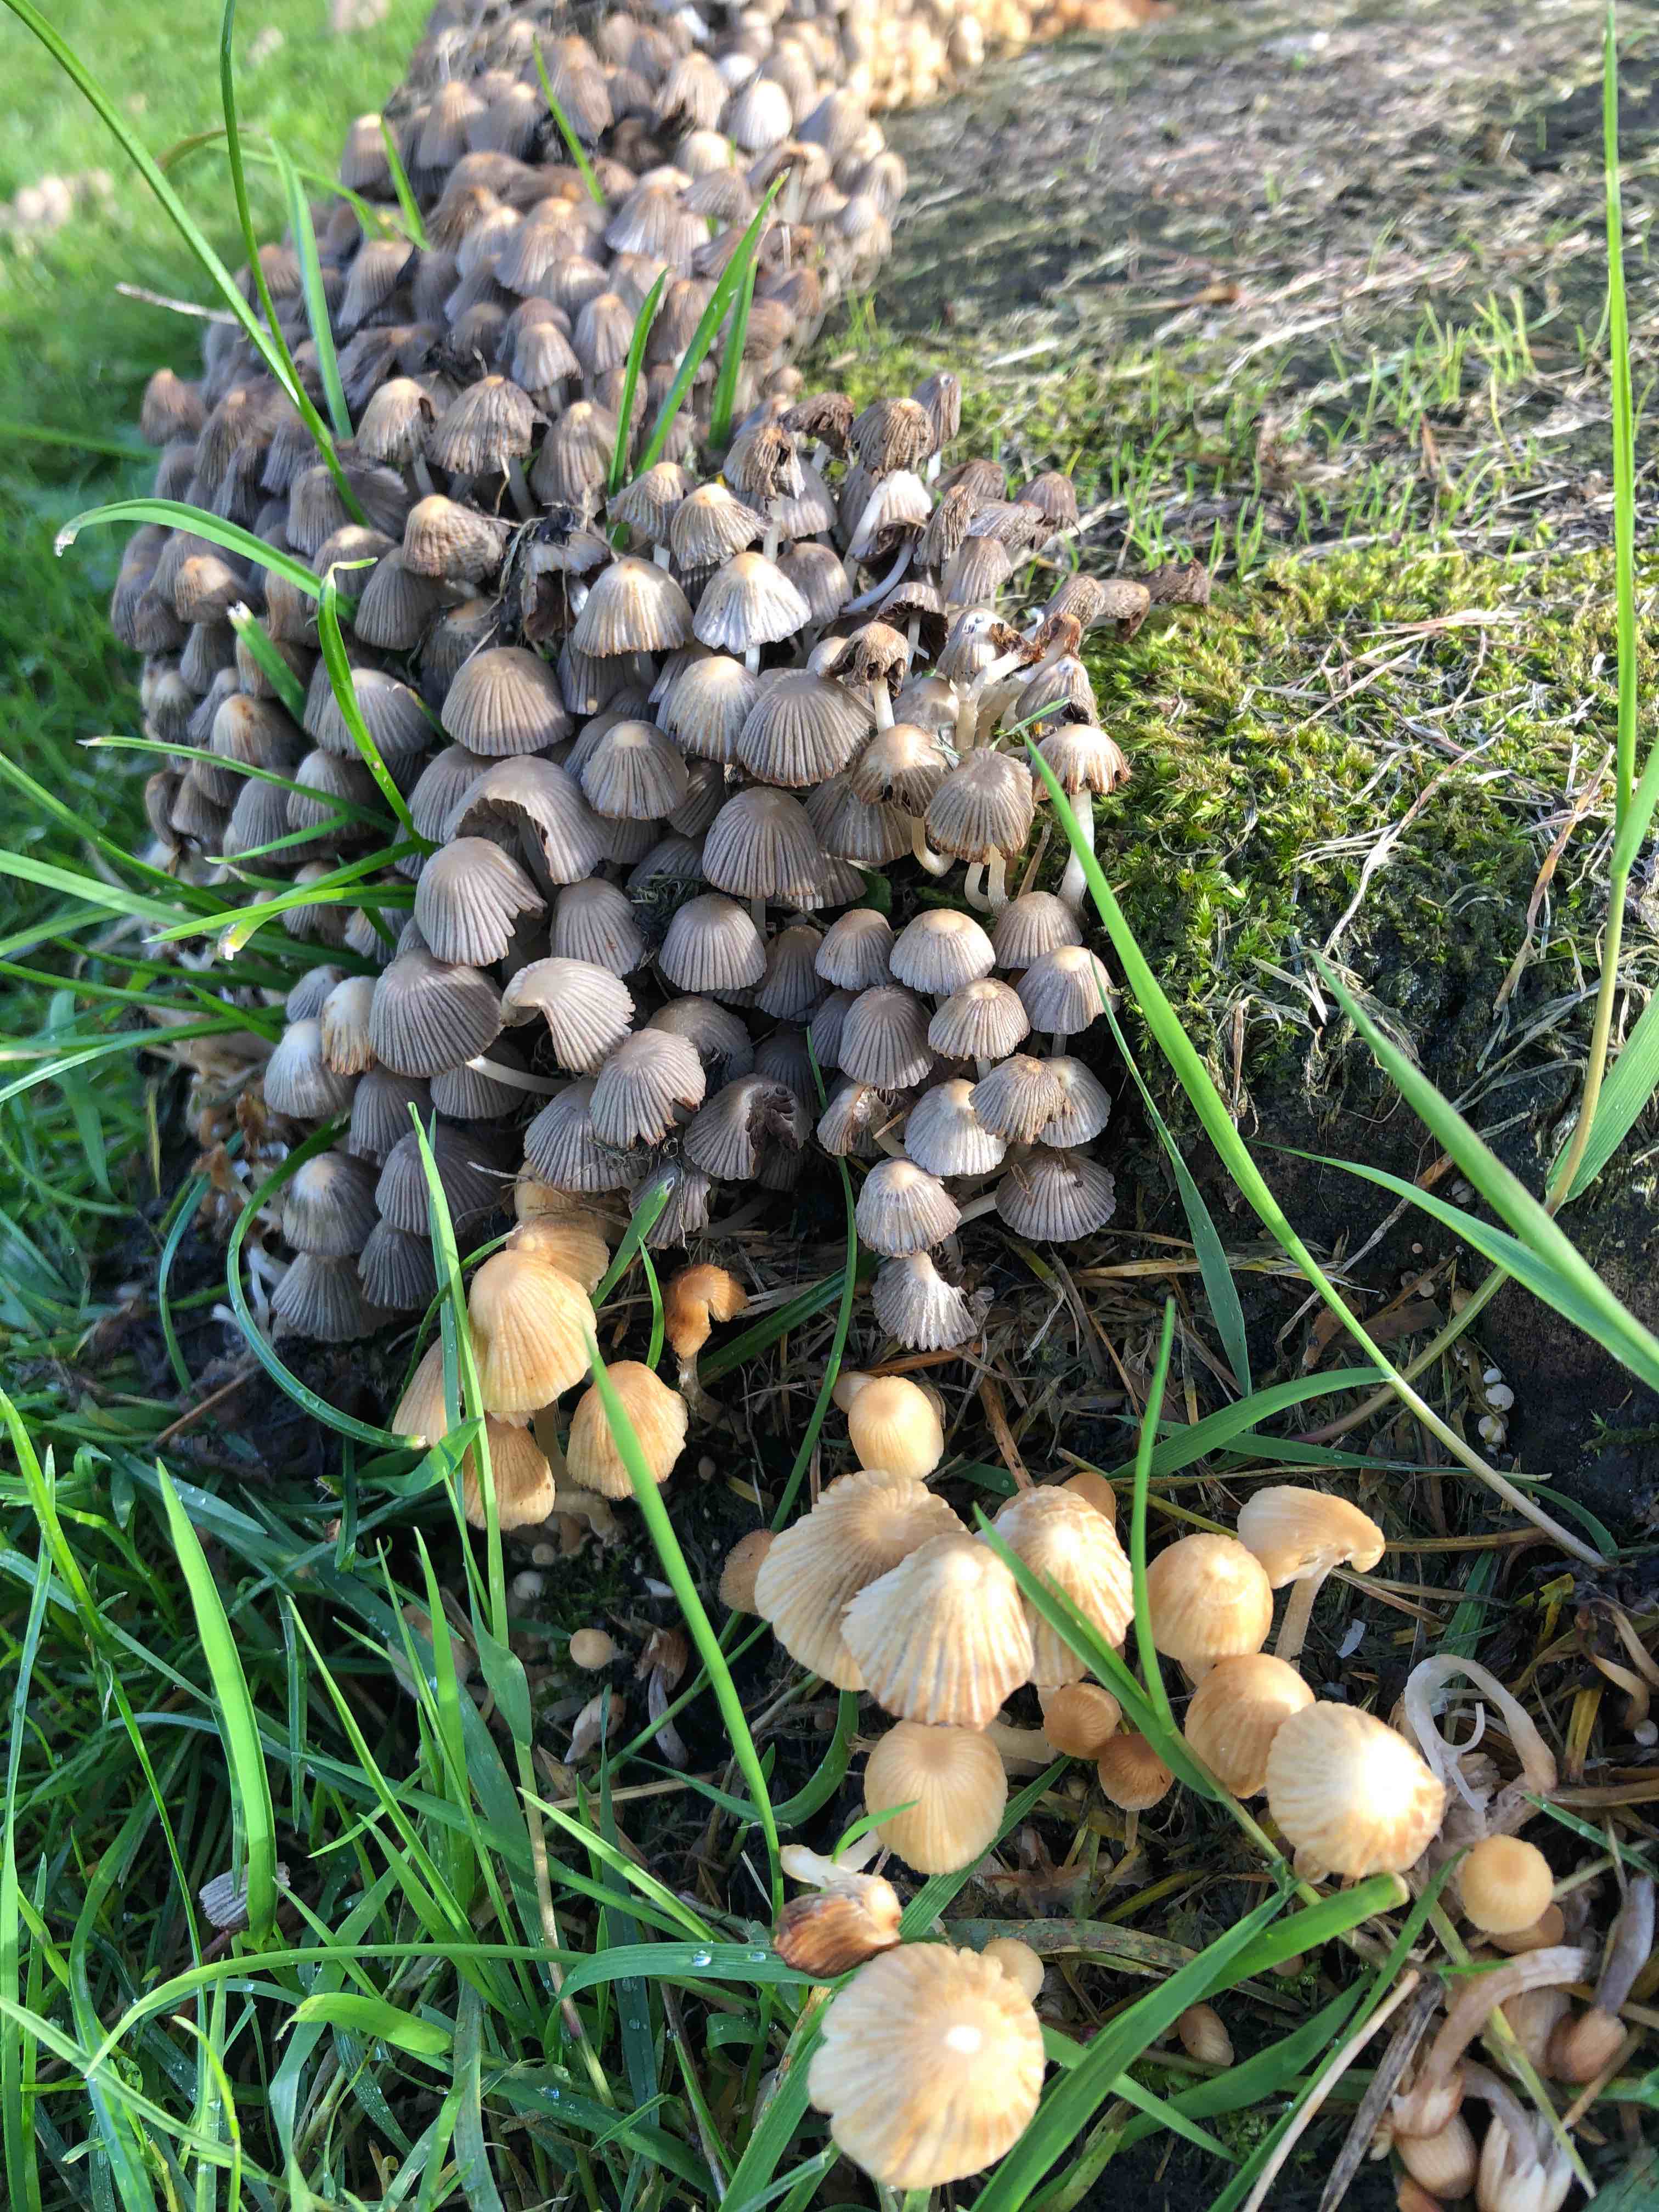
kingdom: Fungi
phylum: Basidiomycota
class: Agaricomycetes
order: Agaricales
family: Psathyrellaceae
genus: Coprinellus
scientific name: Coprinellus disseminatus
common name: bredsået blækhat
